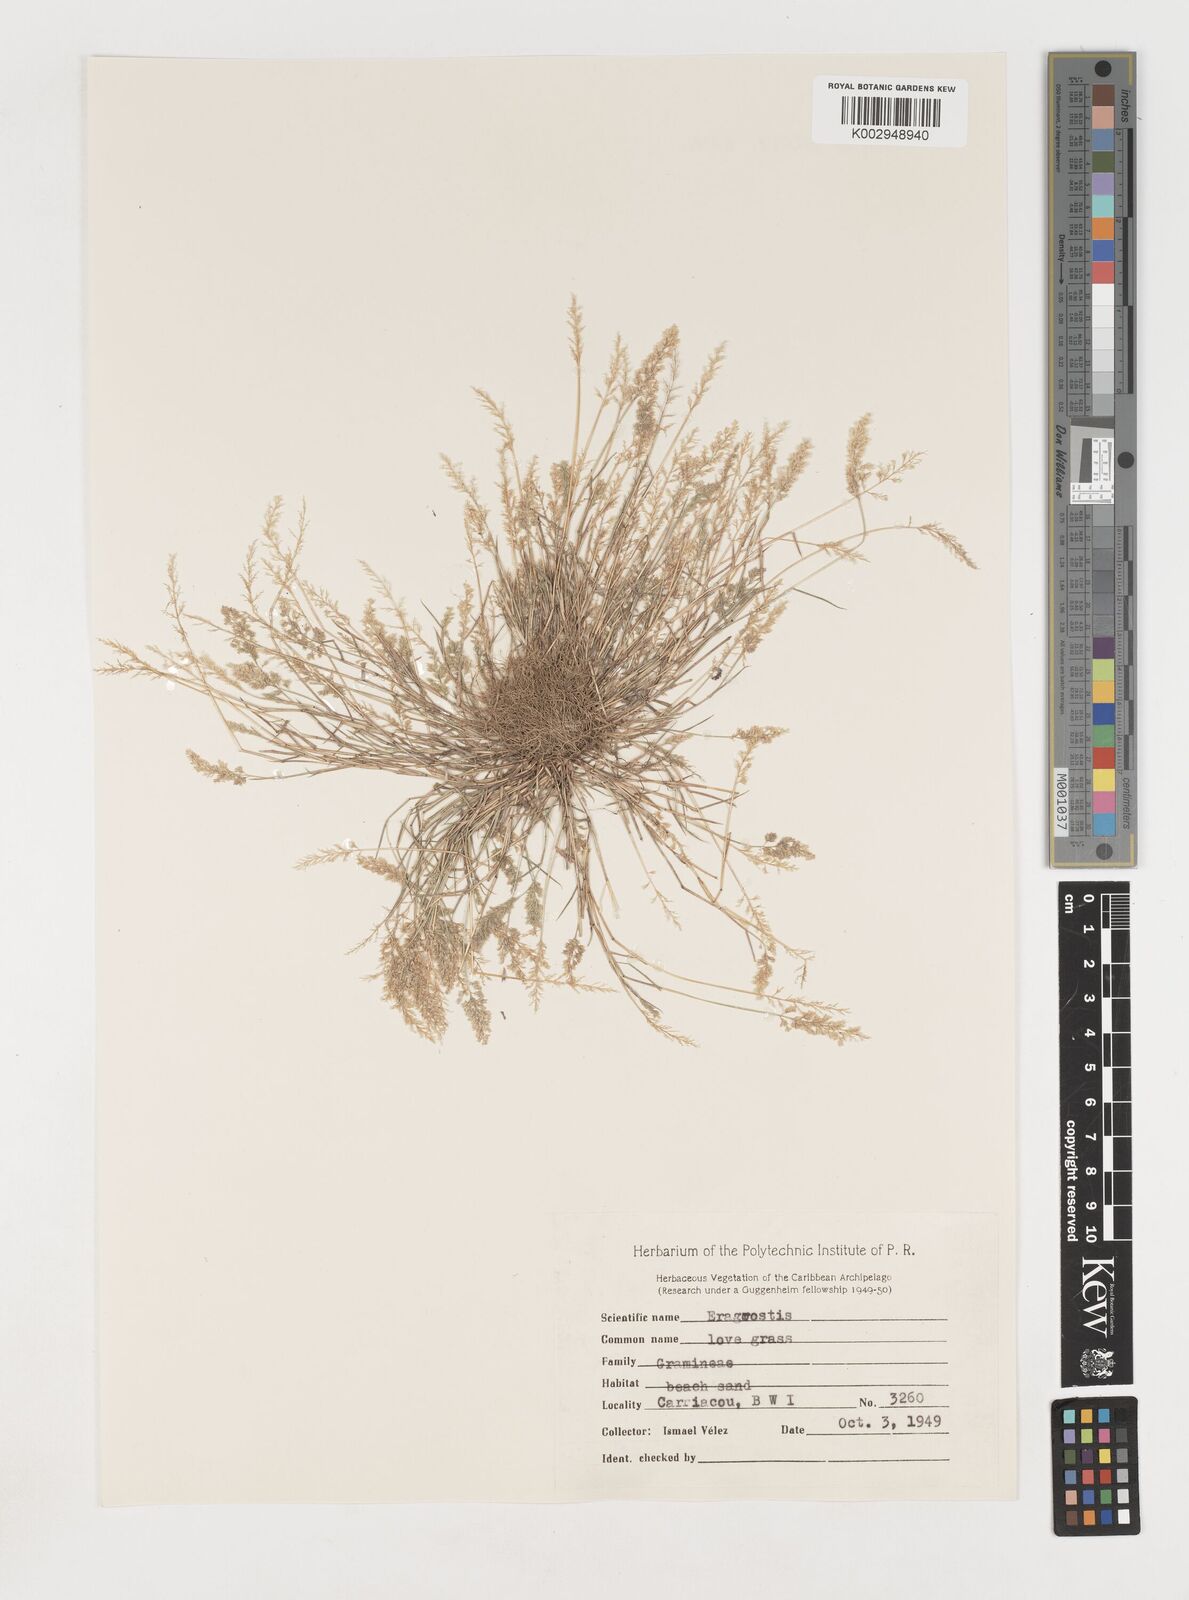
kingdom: Plantae
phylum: Tracheophyta
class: Liliopsida
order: Poales
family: Poaceae
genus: Eragrostis
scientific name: Eragrostis tenella
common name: Japanese lovegrass
